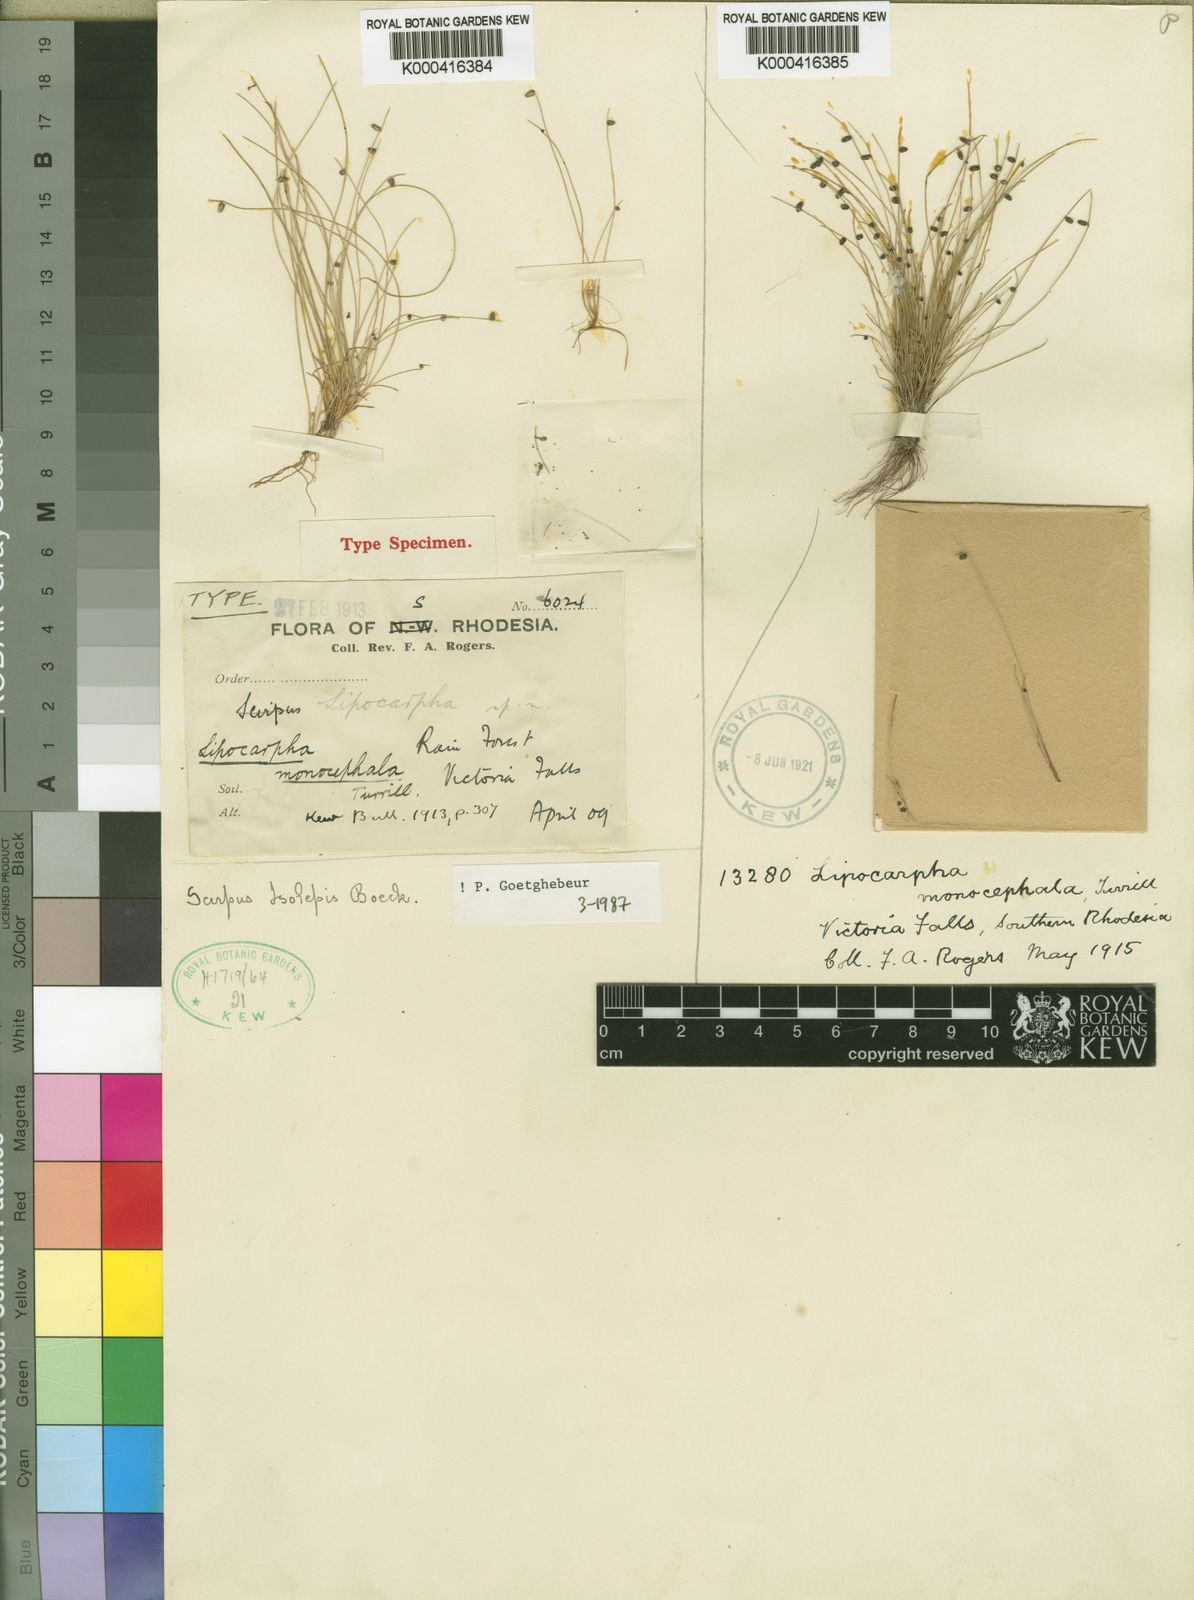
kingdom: Plantae
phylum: Tracheophyta
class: Liliopsida
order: Poales
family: Cyperaceae
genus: Cyperus
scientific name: Cyperus isolepis
